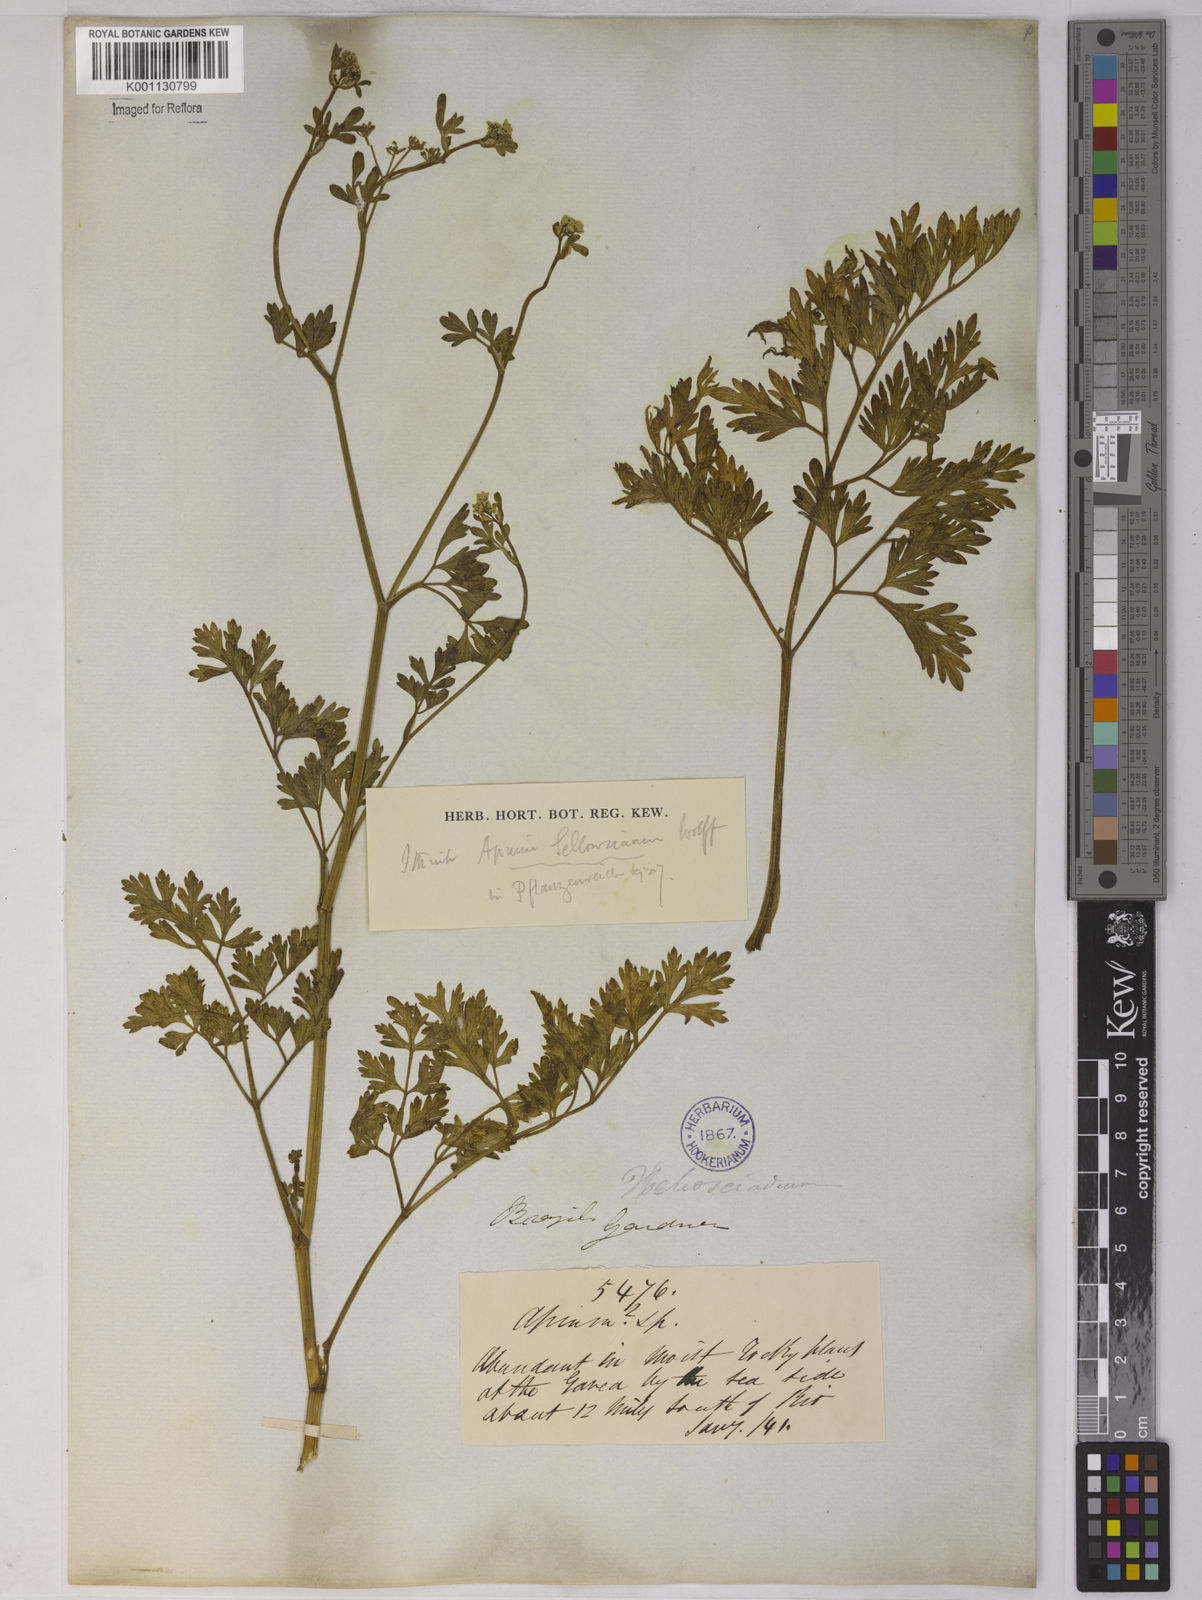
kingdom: Plantae
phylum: Tracheophyta
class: Magnoliopsida
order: Apiales
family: Apiaceae
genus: Apium
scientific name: Apium sellowianum
